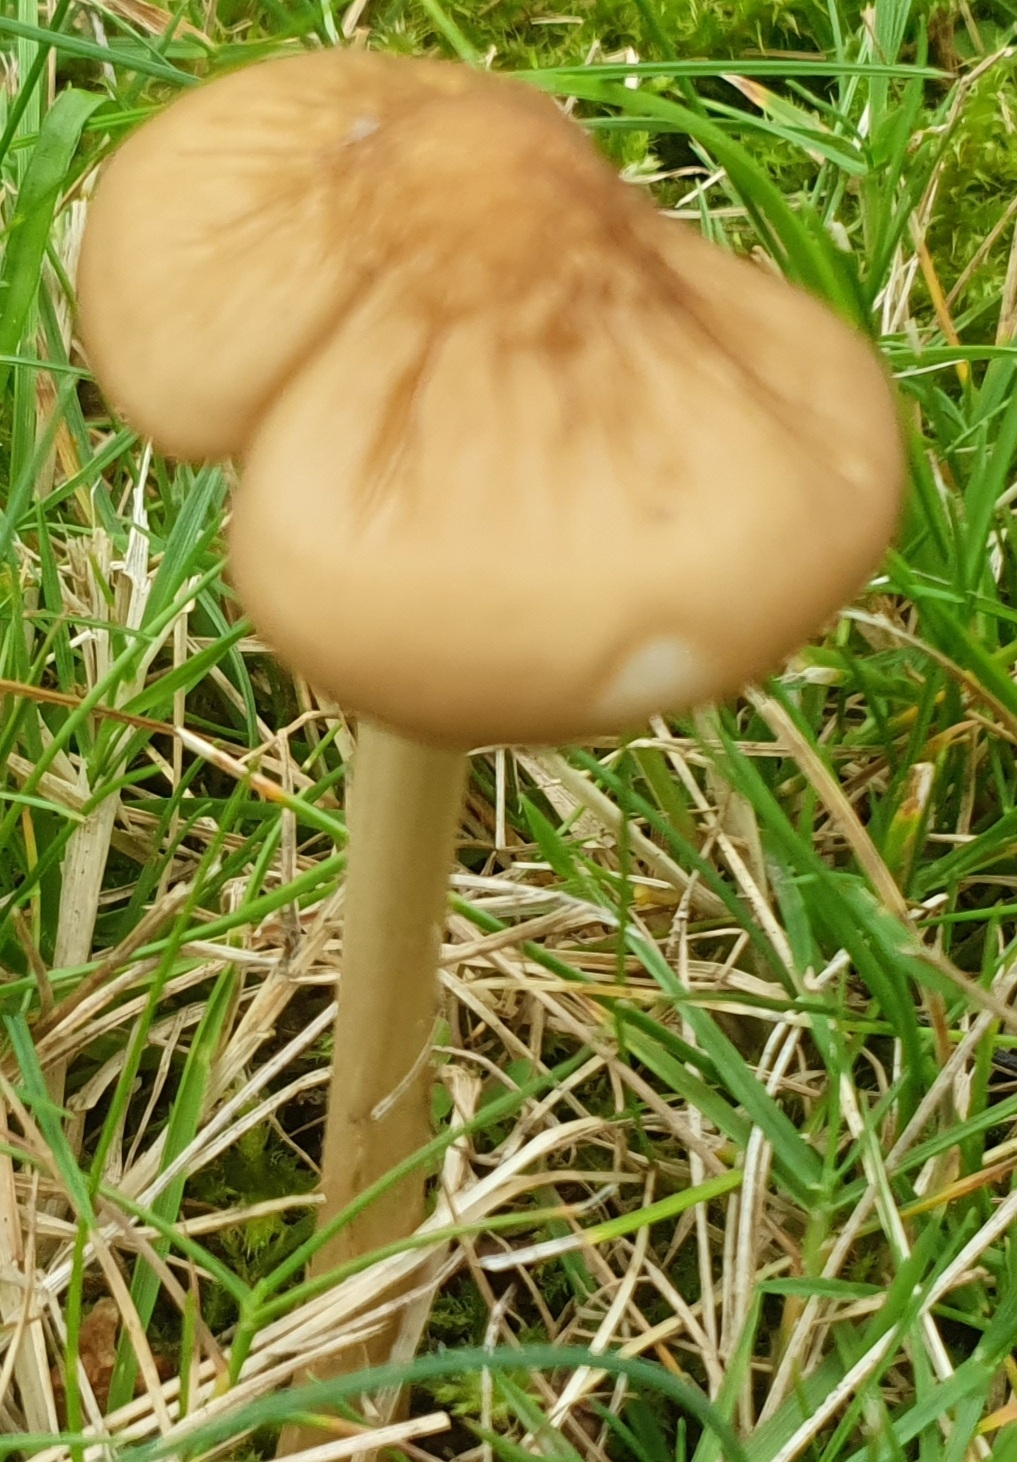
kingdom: Fungi
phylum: Basidiomycota
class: Agaricomycetes
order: Agaricales
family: Physalacriaceae
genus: Hymenopellis
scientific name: Hymenopellis radicata
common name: almindelig pælerodshat
